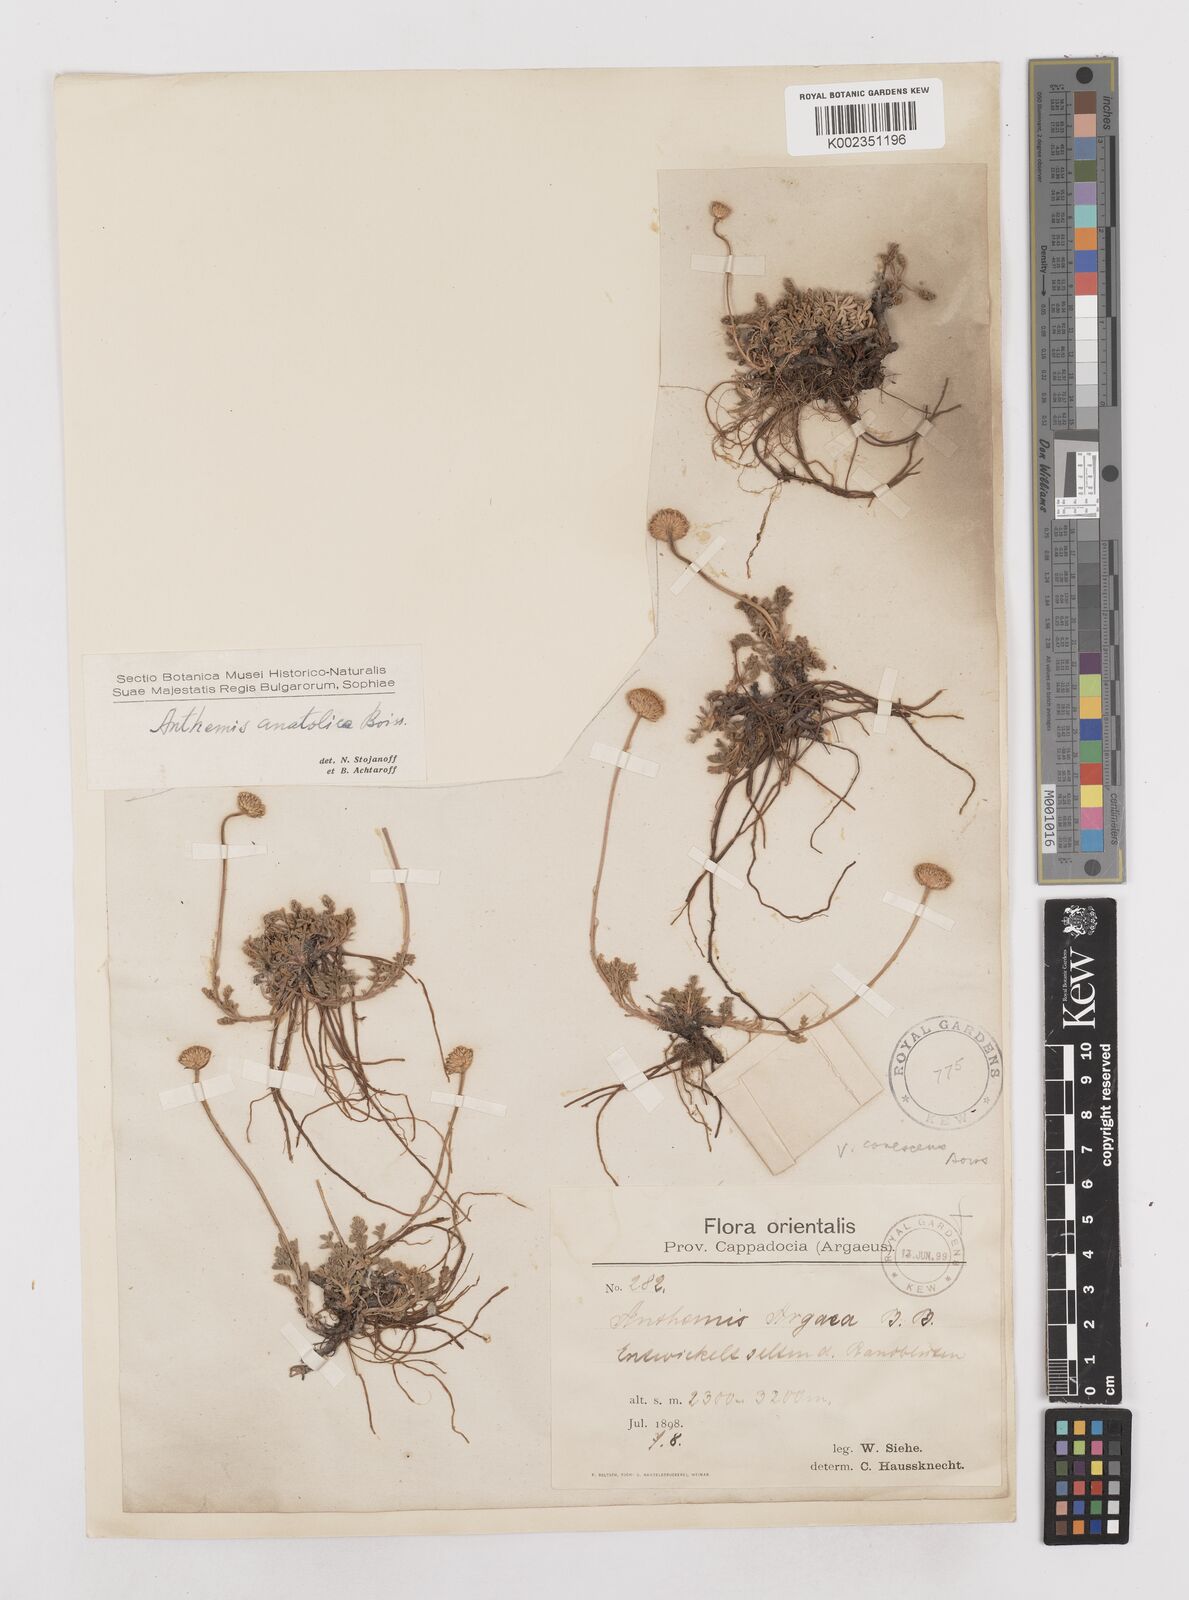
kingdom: Plantae
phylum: Tracheophyta
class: Magnoliopsida
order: Asterales
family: Asteraceae
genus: Anthemis
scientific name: Anthemis cretica
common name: Mountain dog-daisy
